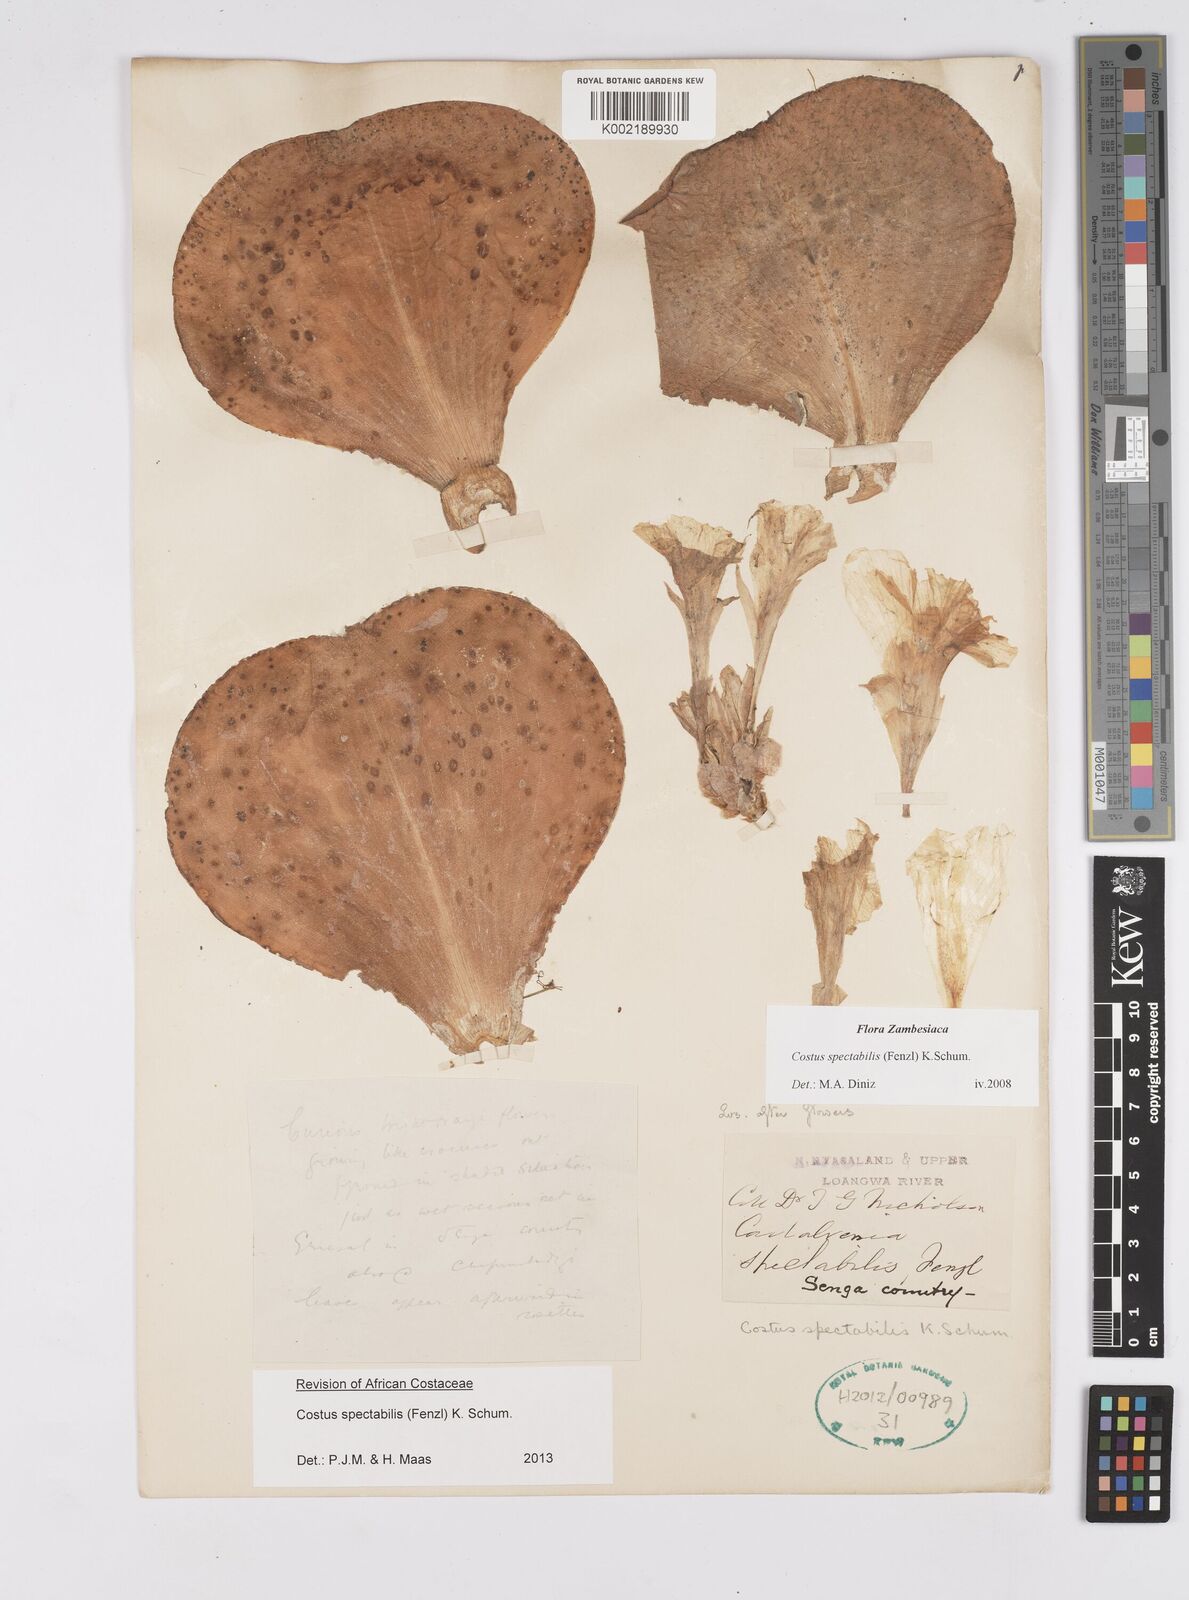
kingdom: Plantae
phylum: Tracheophyta
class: Liliopsida
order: Zingiberales
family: Costaceae
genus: Costus
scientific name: Costus spectabilis
